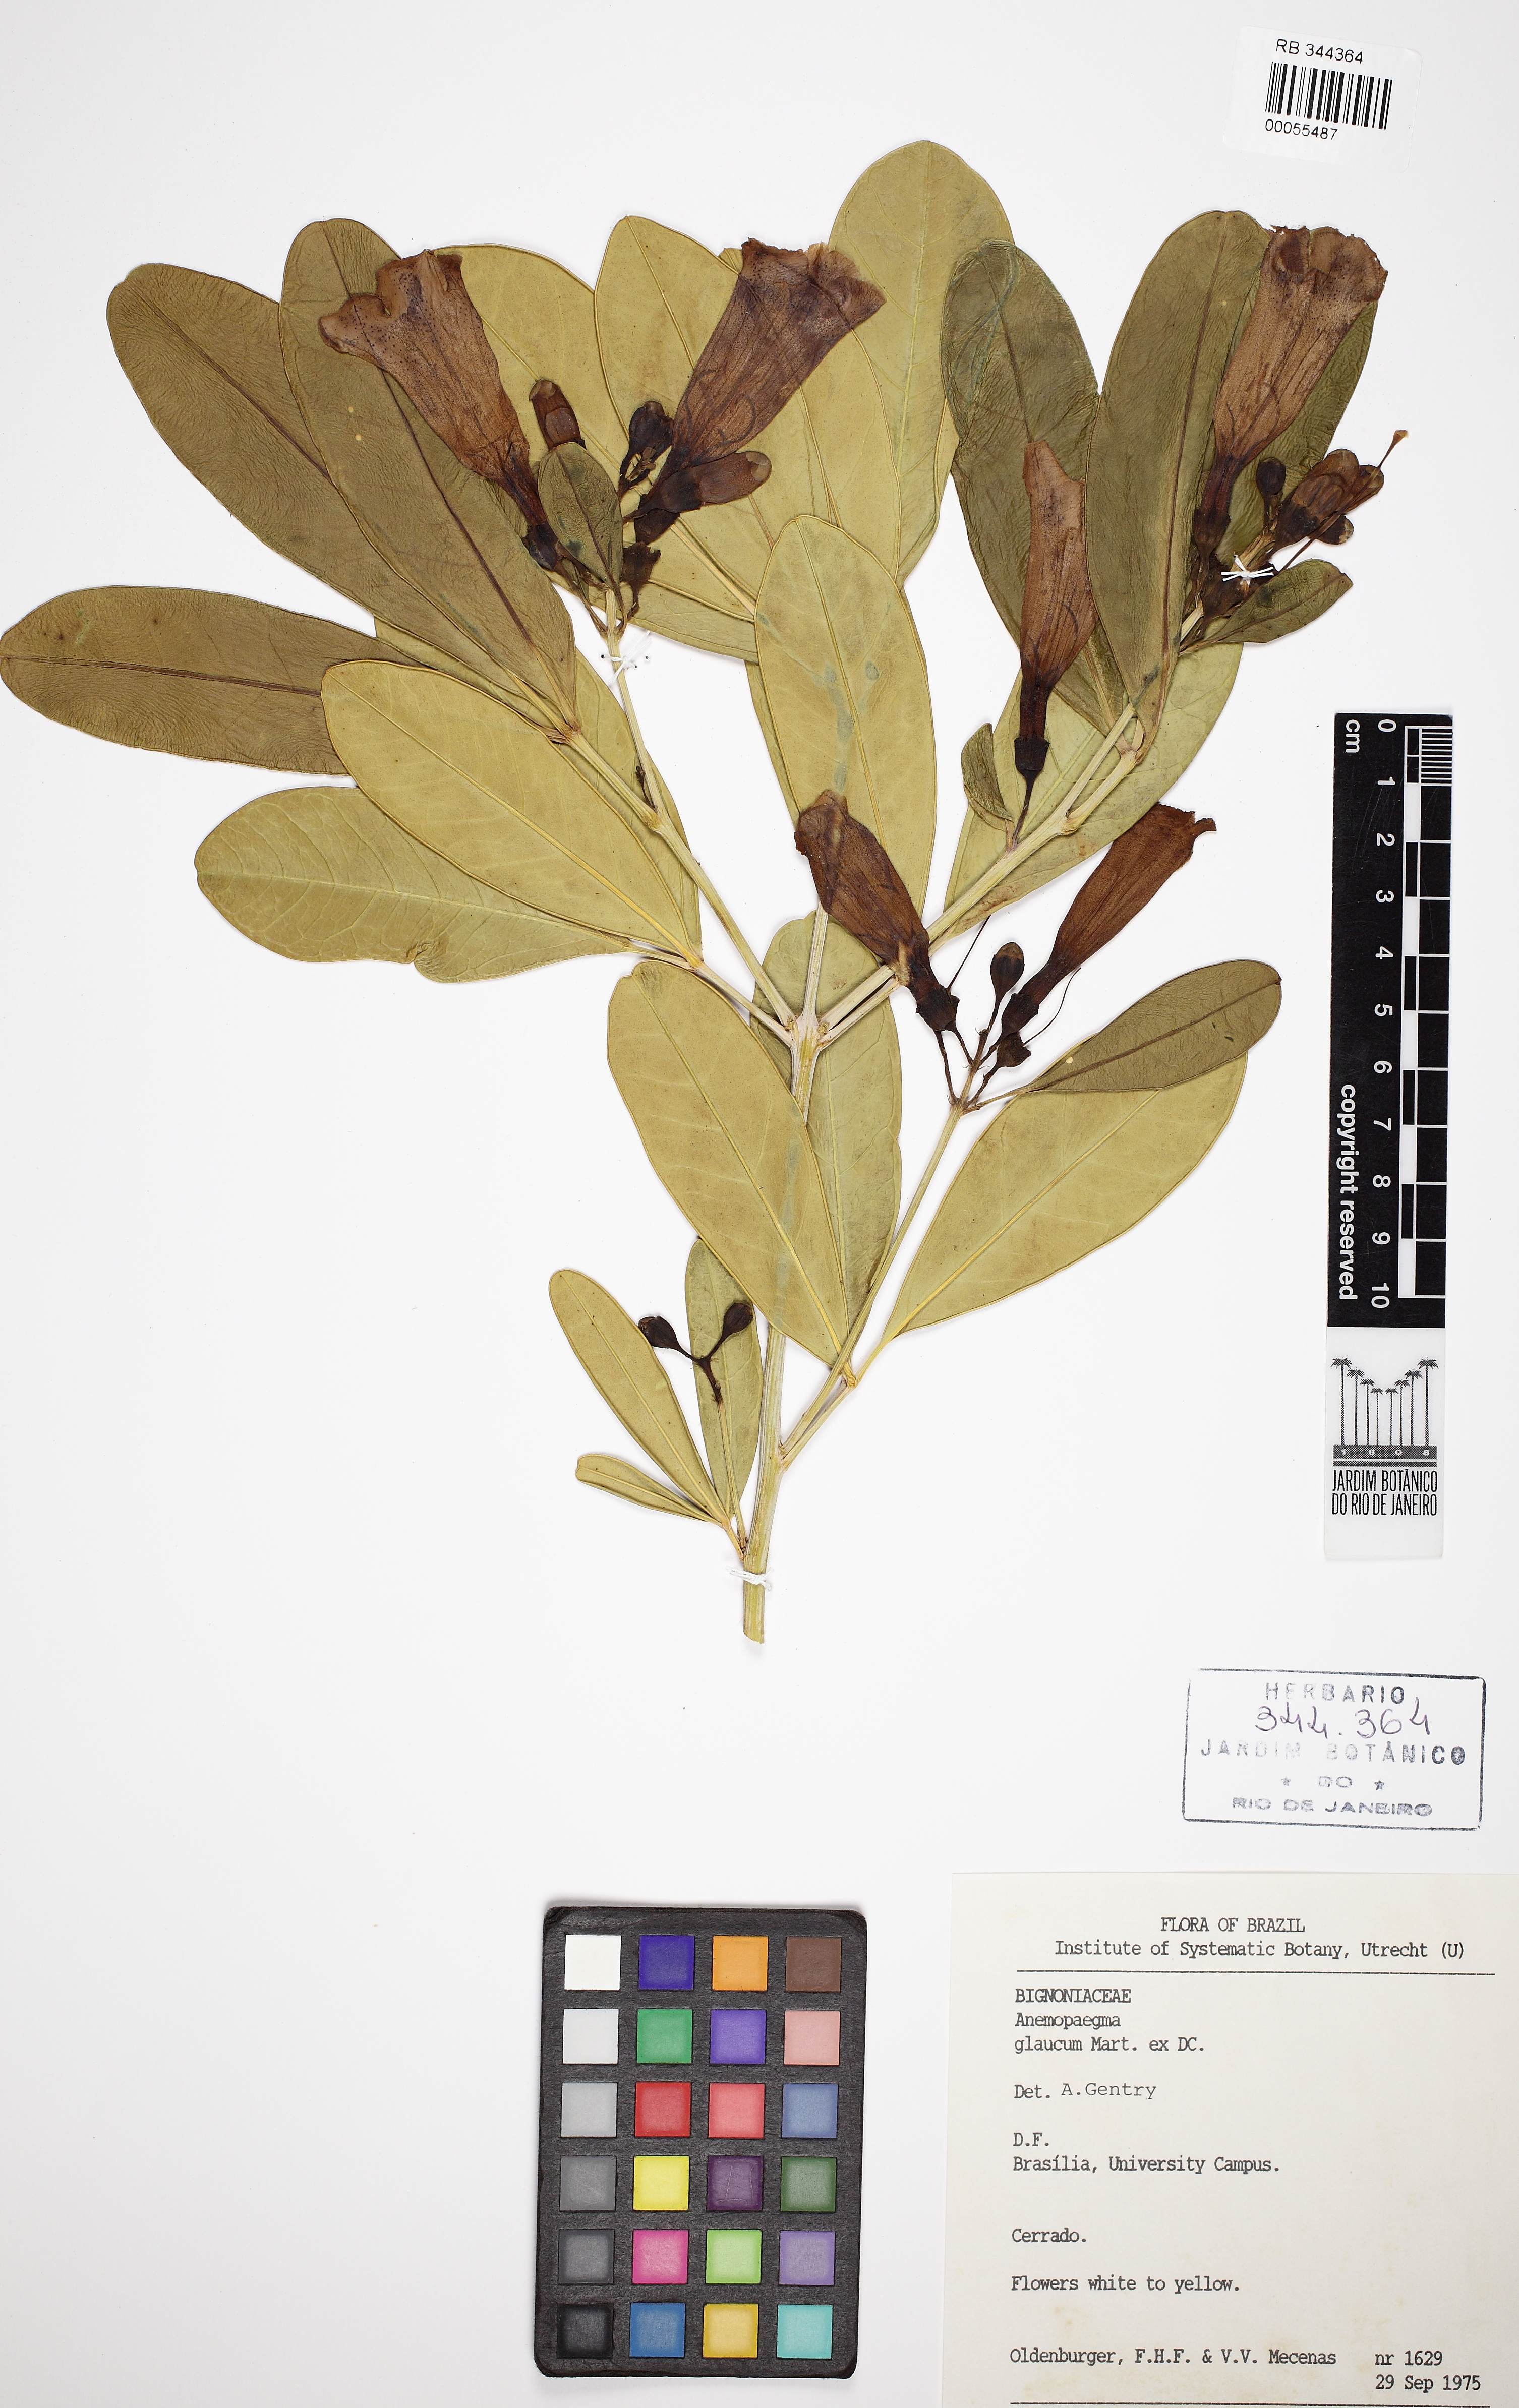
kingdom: Plantae
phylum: Tracheophyta
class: Magnoliopsida
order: Lamiales
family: Bignoniaceae
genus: Anemopaegma
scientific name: Anemopaegma glaucum
